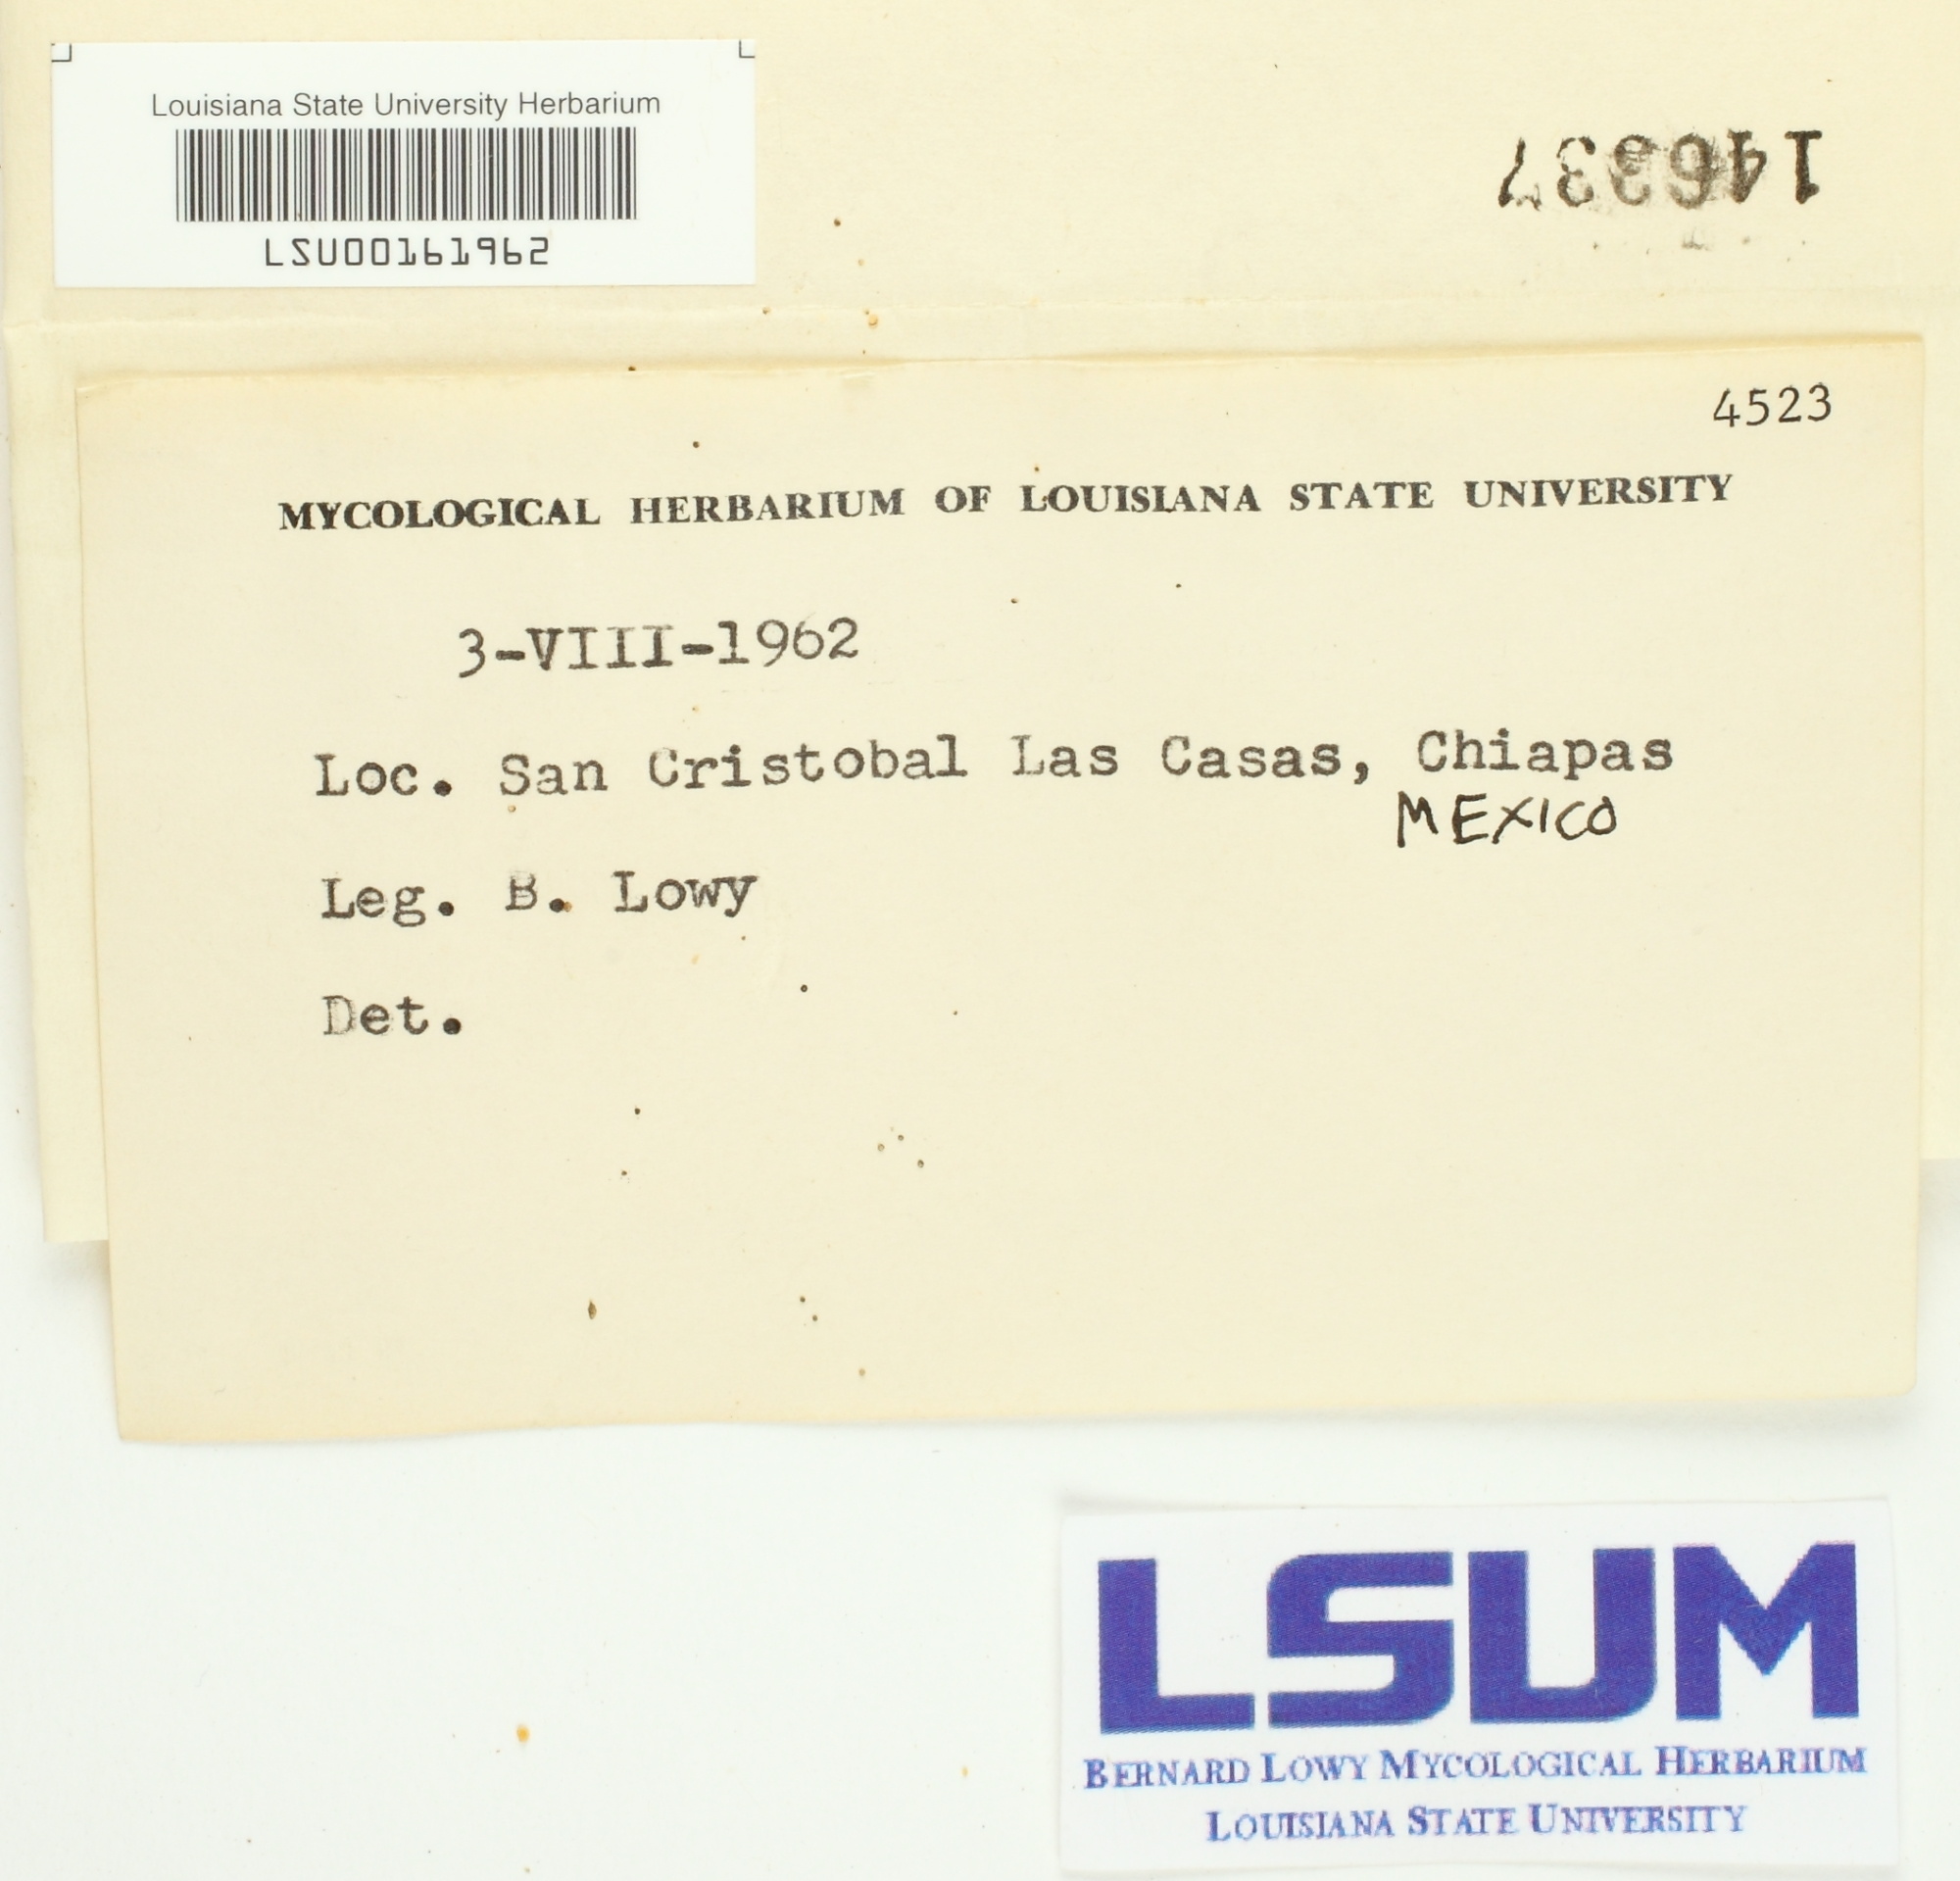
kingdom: Fungi
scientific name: Fungi
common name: Fungi
